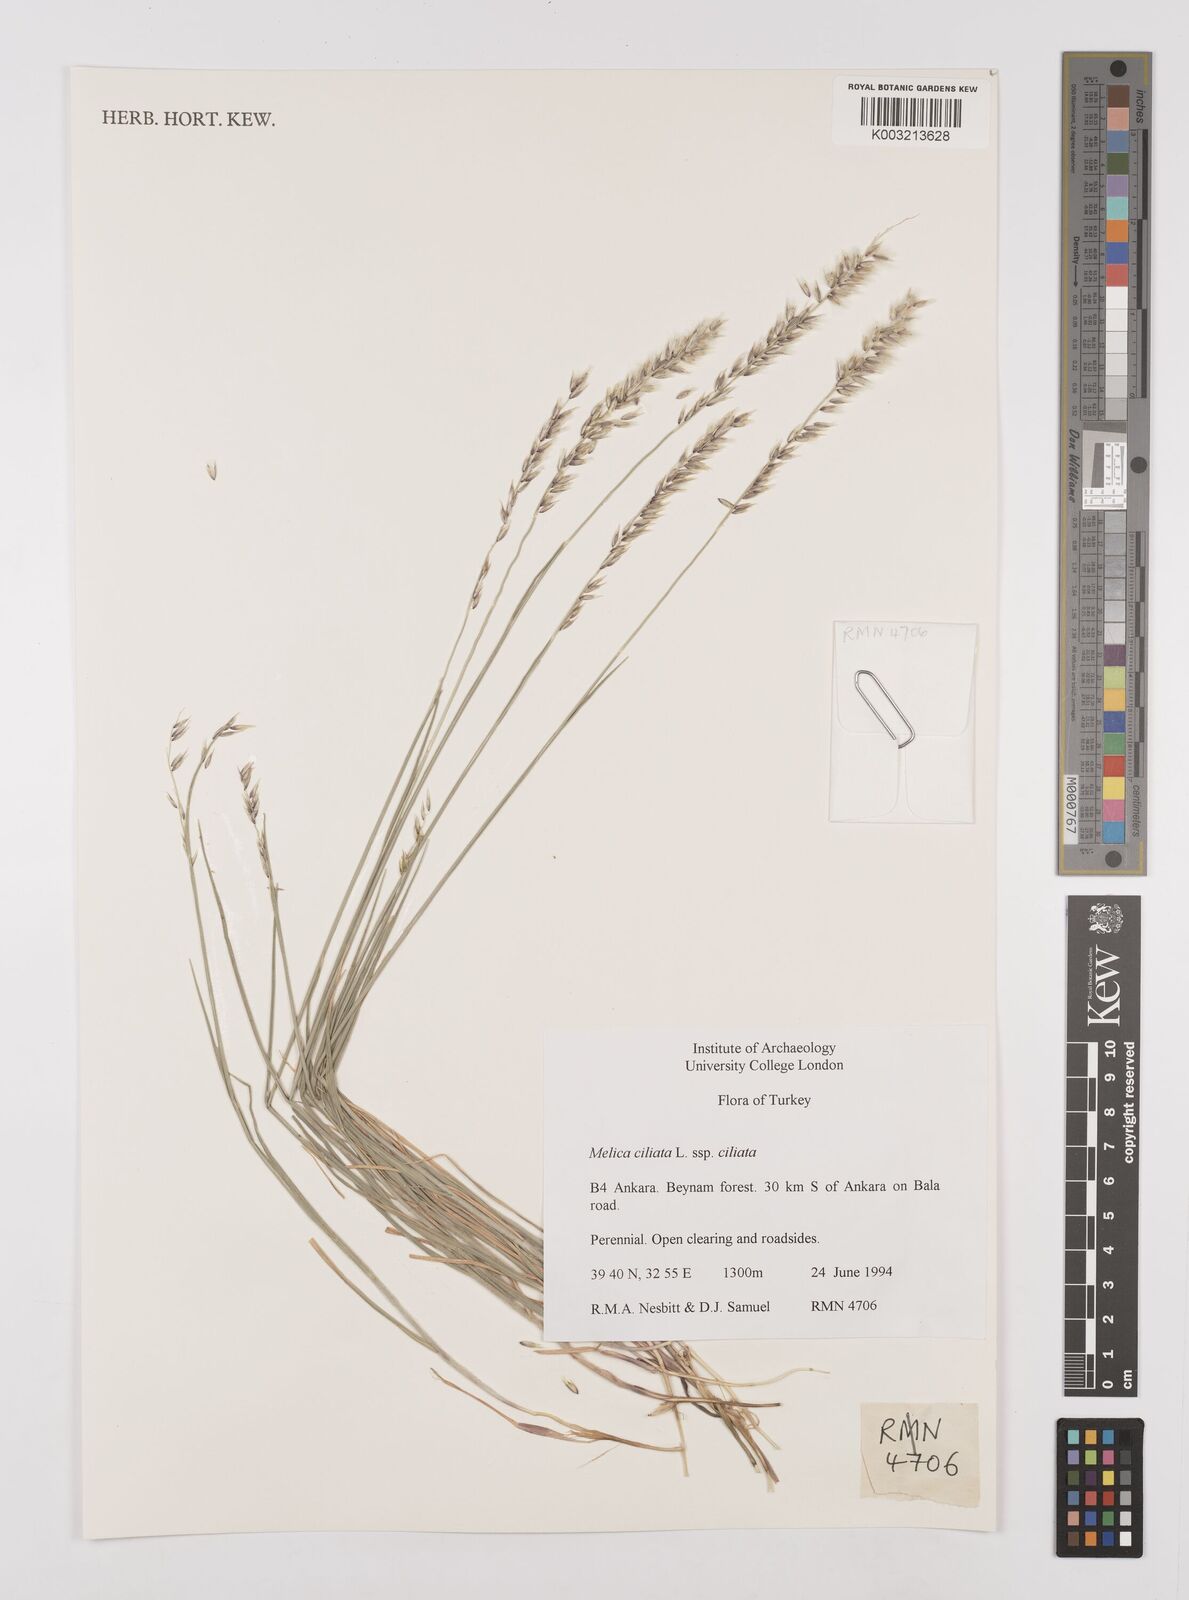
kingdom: Plantae
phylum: Tracheophyta
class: Liliopsida
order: Poales
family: Poaceae
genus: Melica
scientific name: Melica ciliata
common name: Hairy melicgrass
